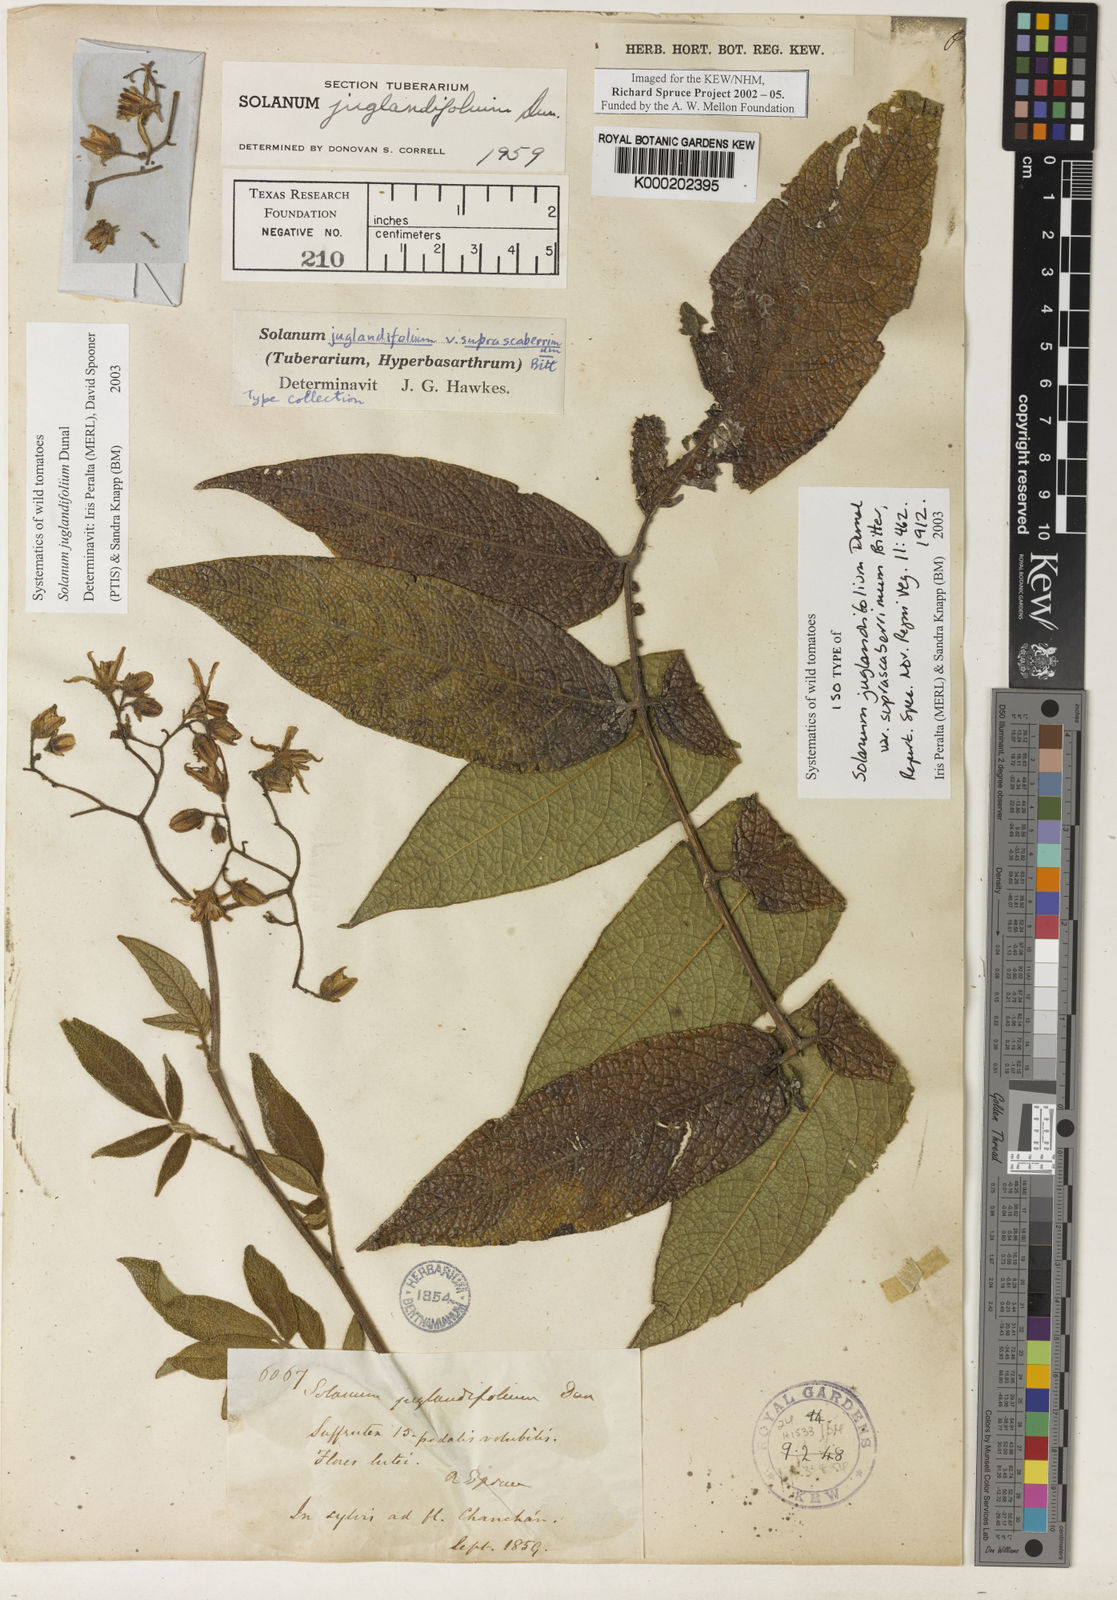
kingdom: Plantae
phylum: Tracheophyta
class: Magnoliopsida
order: Solanales
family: Solanaceae
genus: Solanum
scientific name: Solanum juglandifolium
